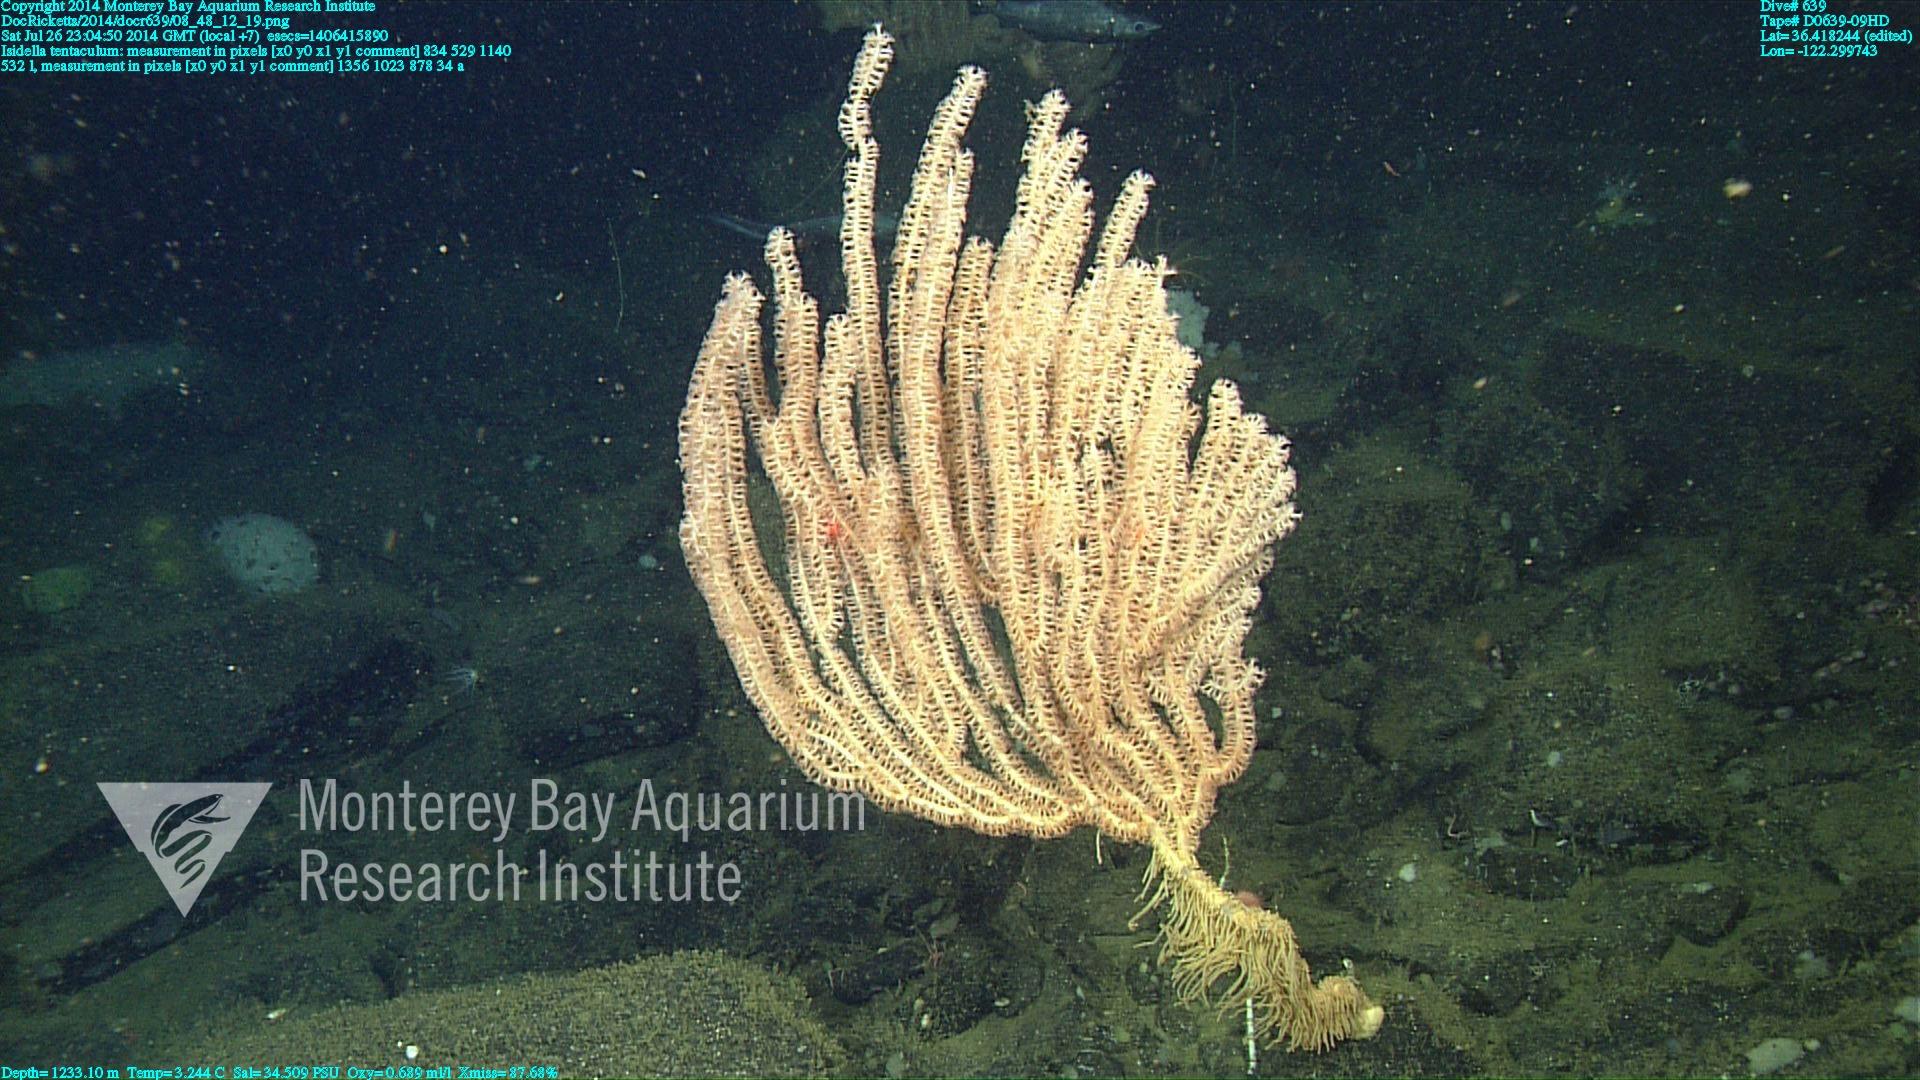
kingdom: Animalia
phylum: Cnidaria
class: Anthozoa
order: Scleralcyonacea
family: Keratoisididae
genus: Isidella
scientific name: Isidella tentaculum
